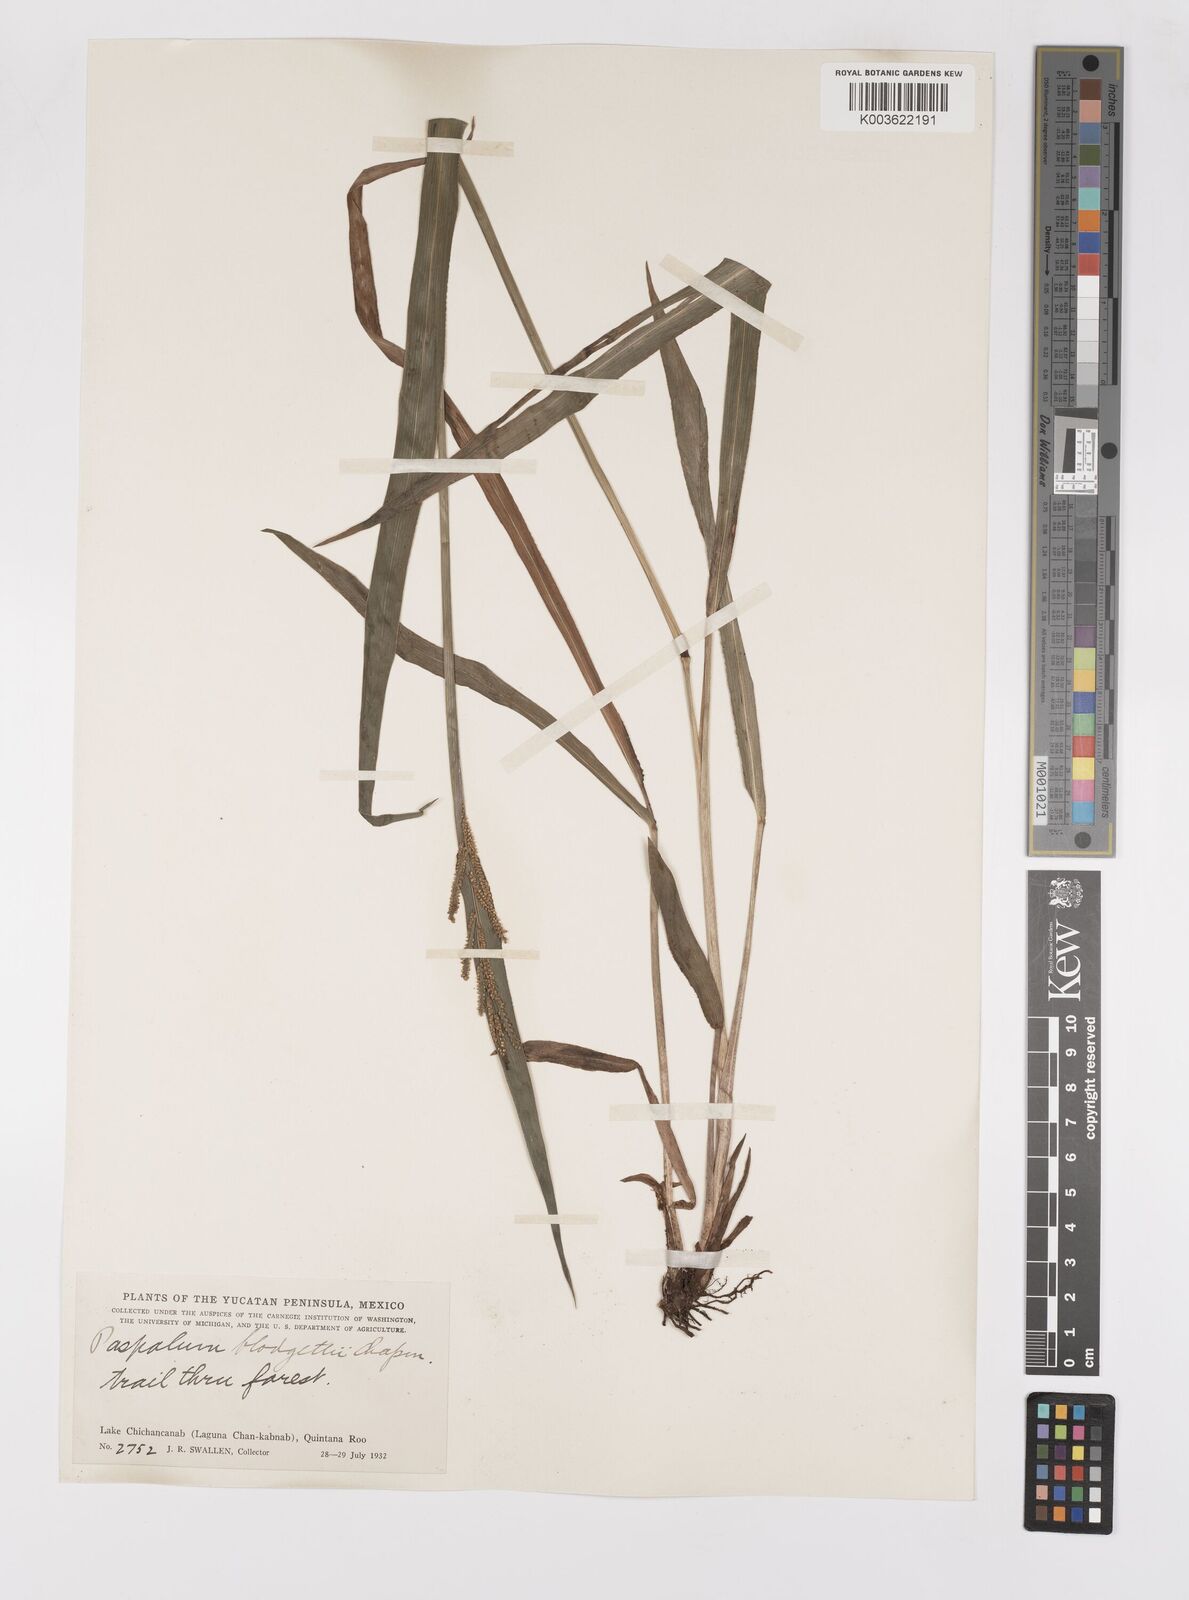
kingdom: Plantae
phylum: Tracheophyta
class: Liliopsida
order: Poales
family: Poaceae
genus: Paspalum
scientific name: Paspalum blodgettii
